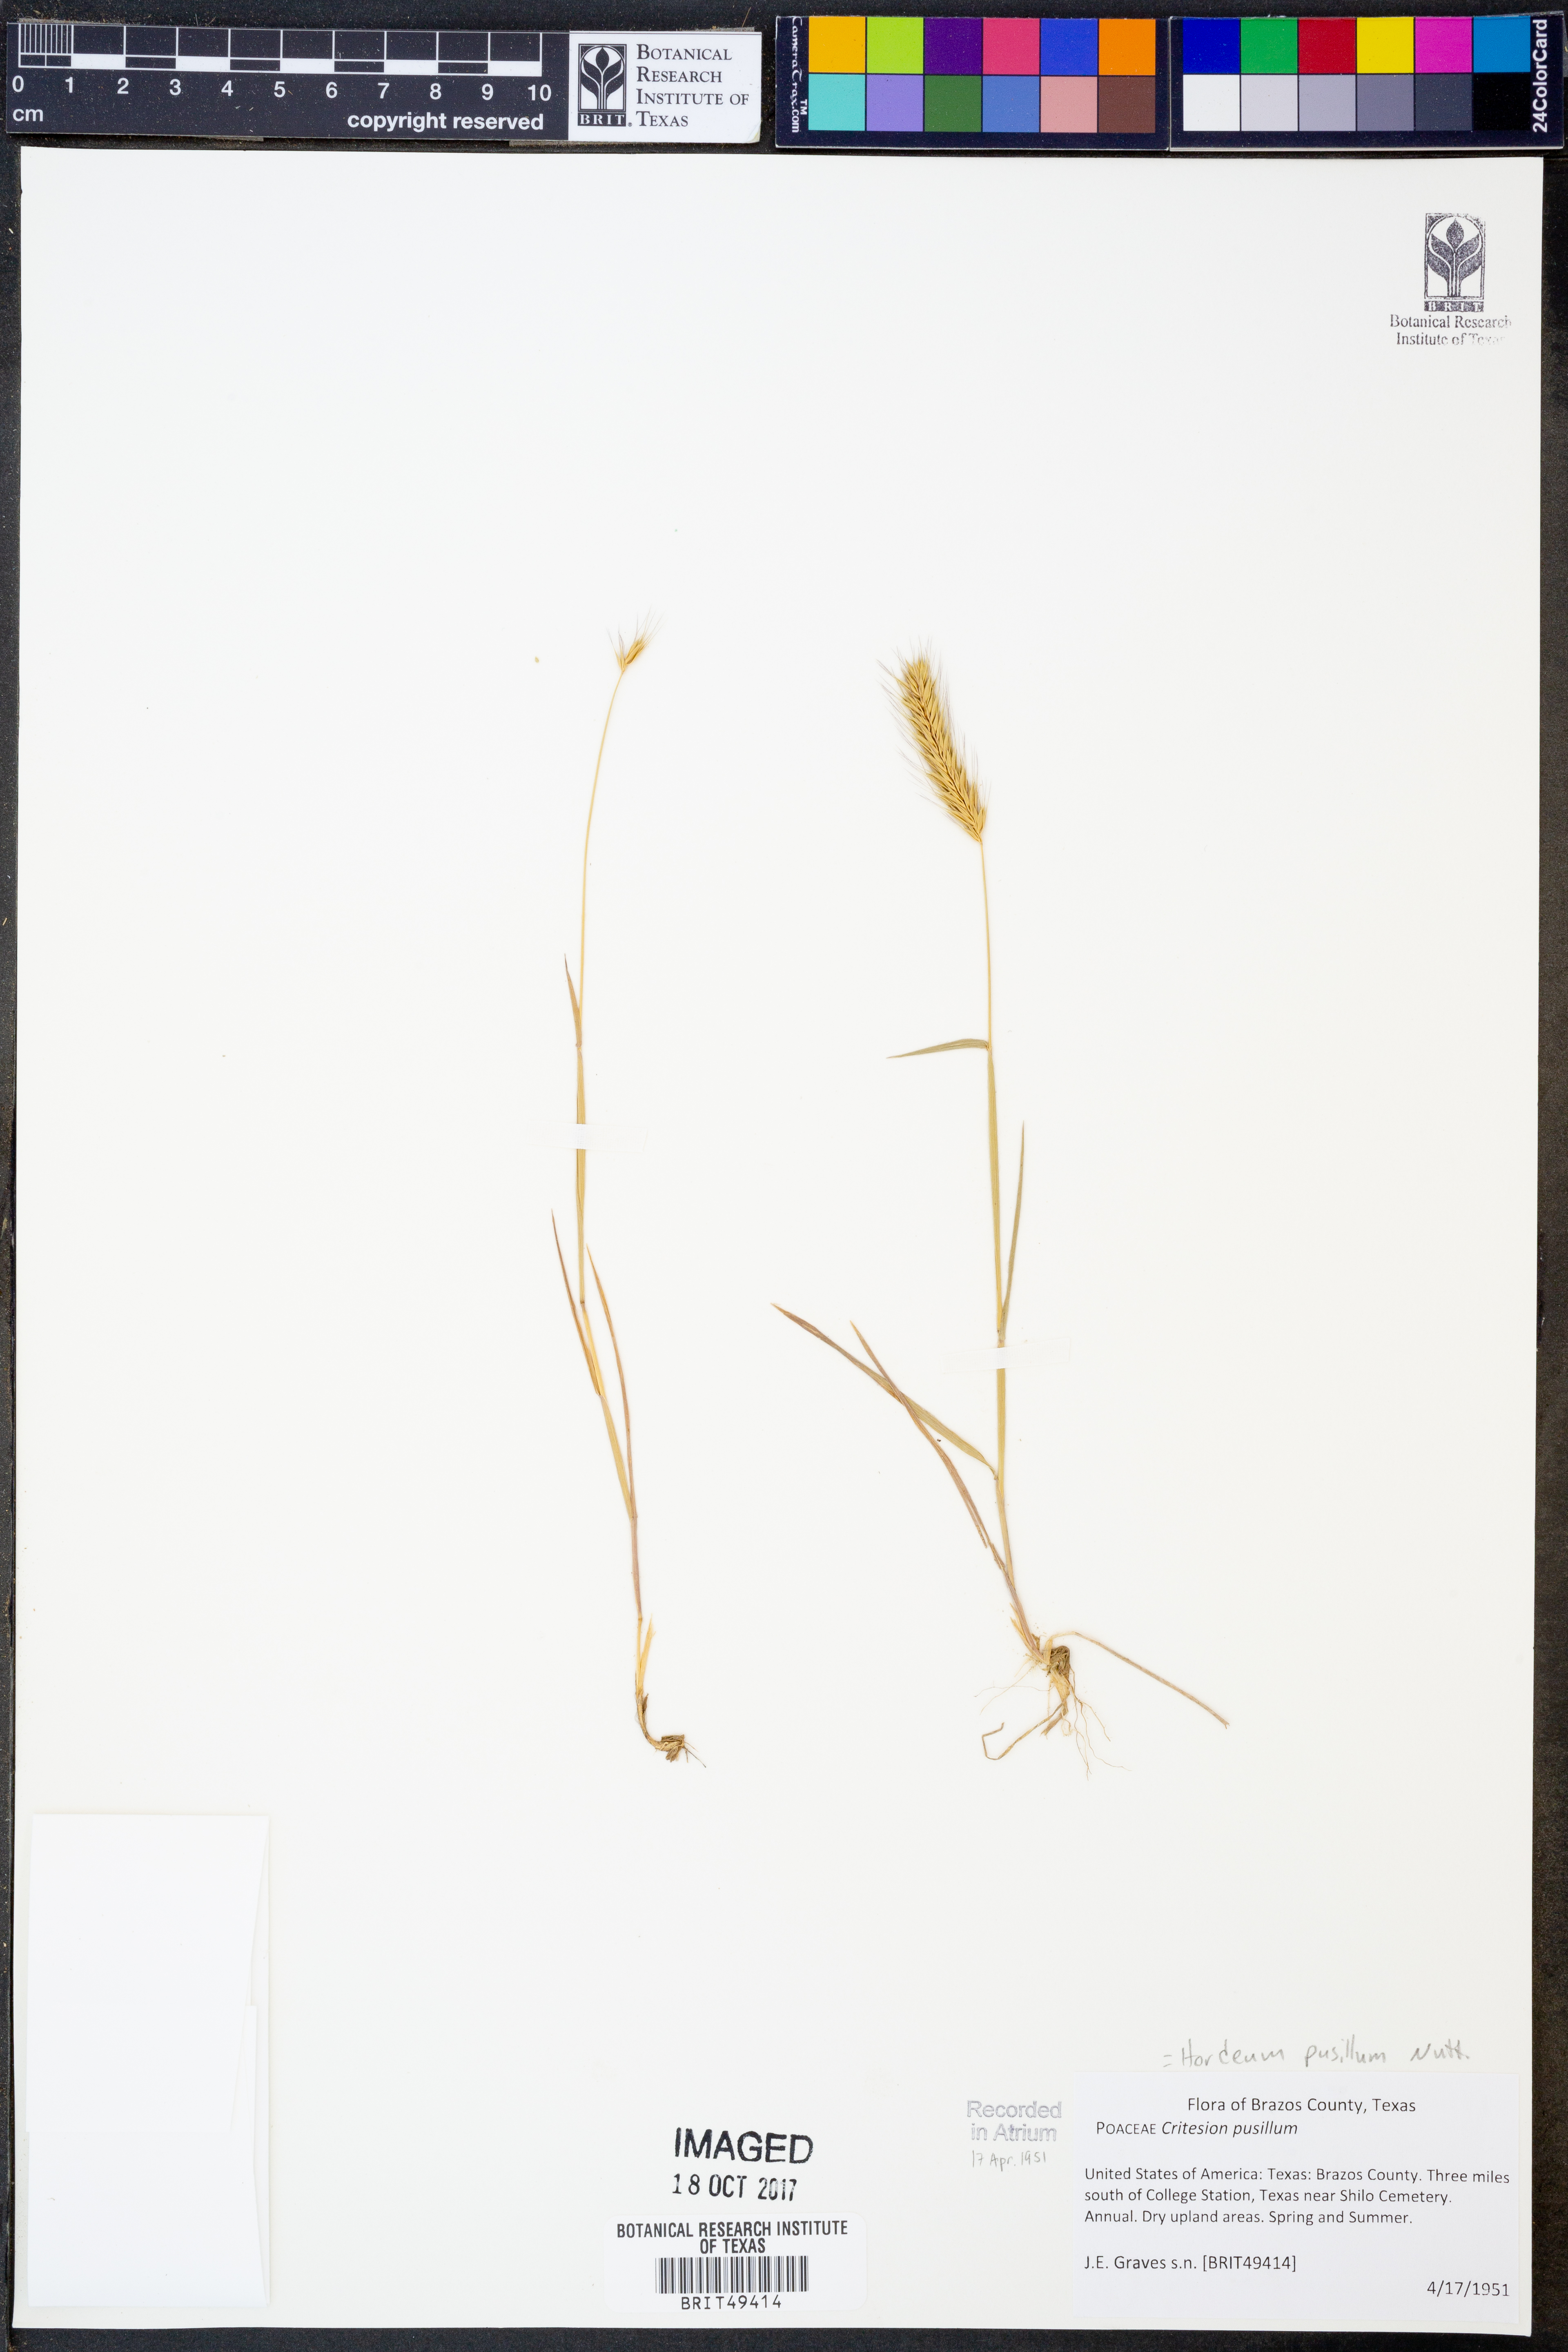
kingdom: Plantae
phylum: Tracheophyta
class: Liliopsida
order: Poales
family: Poaceae
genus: Hordeum
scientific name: Hordeum pusillum
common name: Little barley
